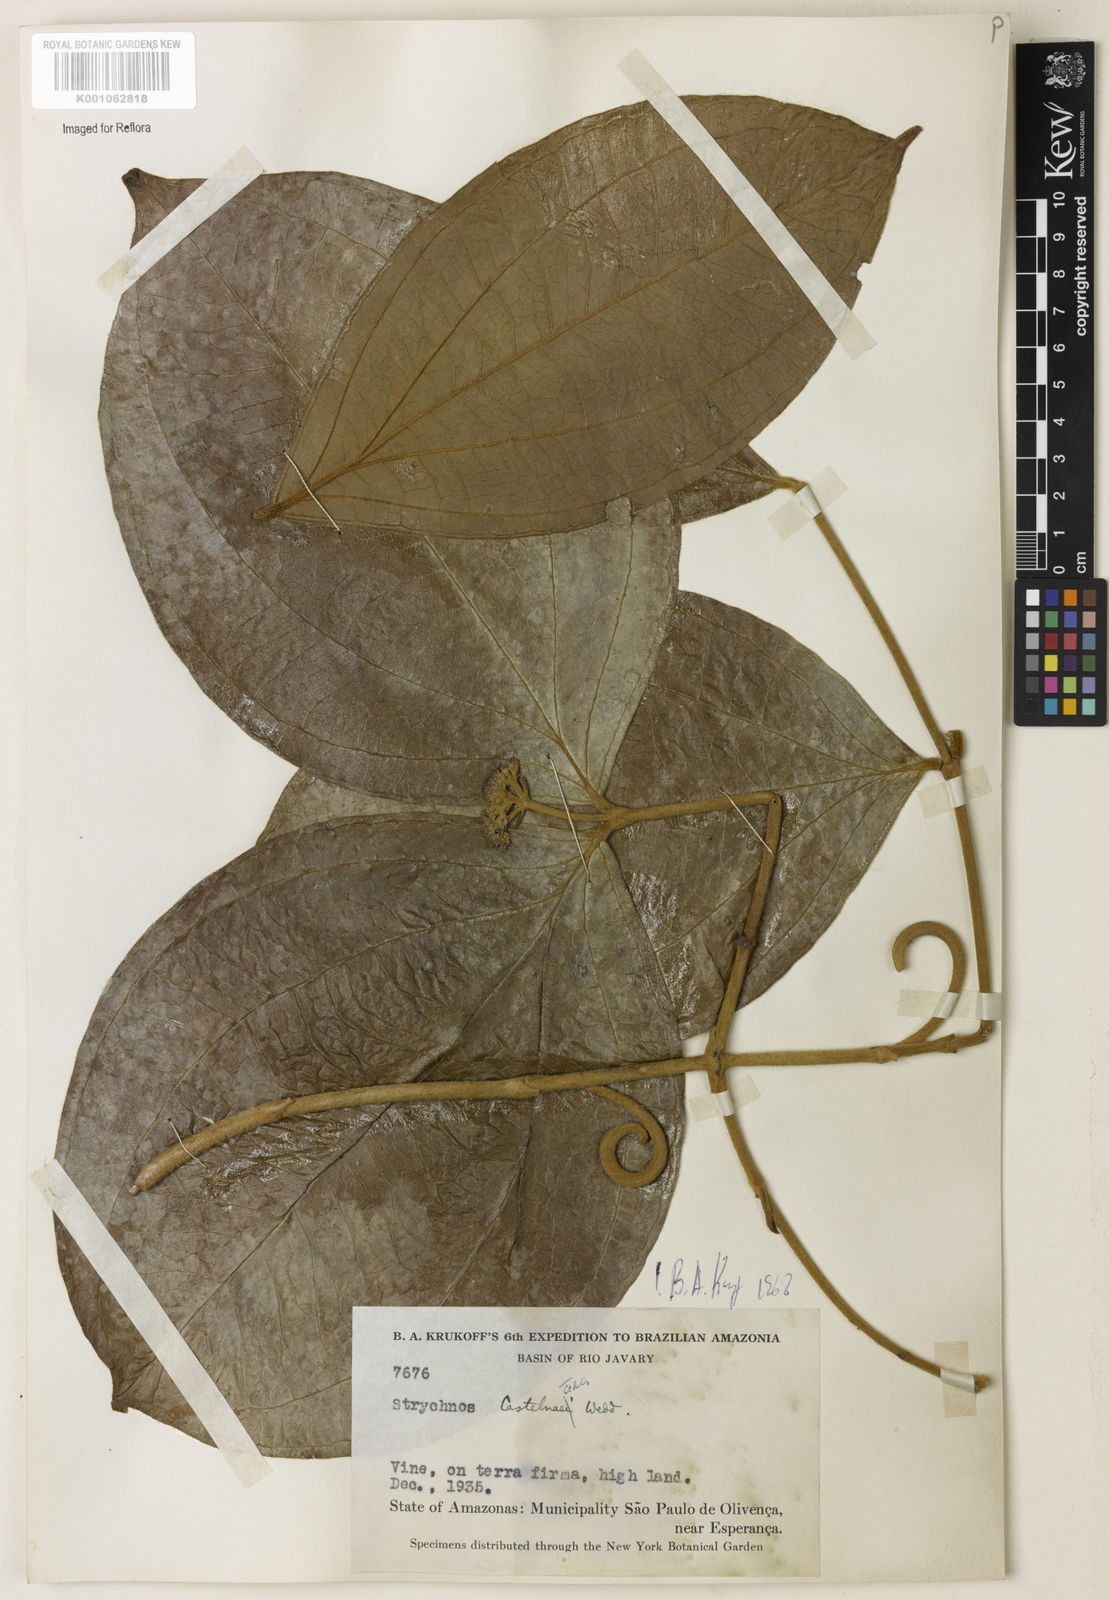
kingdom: Plantae
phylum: Tracheophyta
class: Magnoliopsida
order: Gentianales
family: Loganiaceae
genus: Strychnos
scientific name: Strychnos
